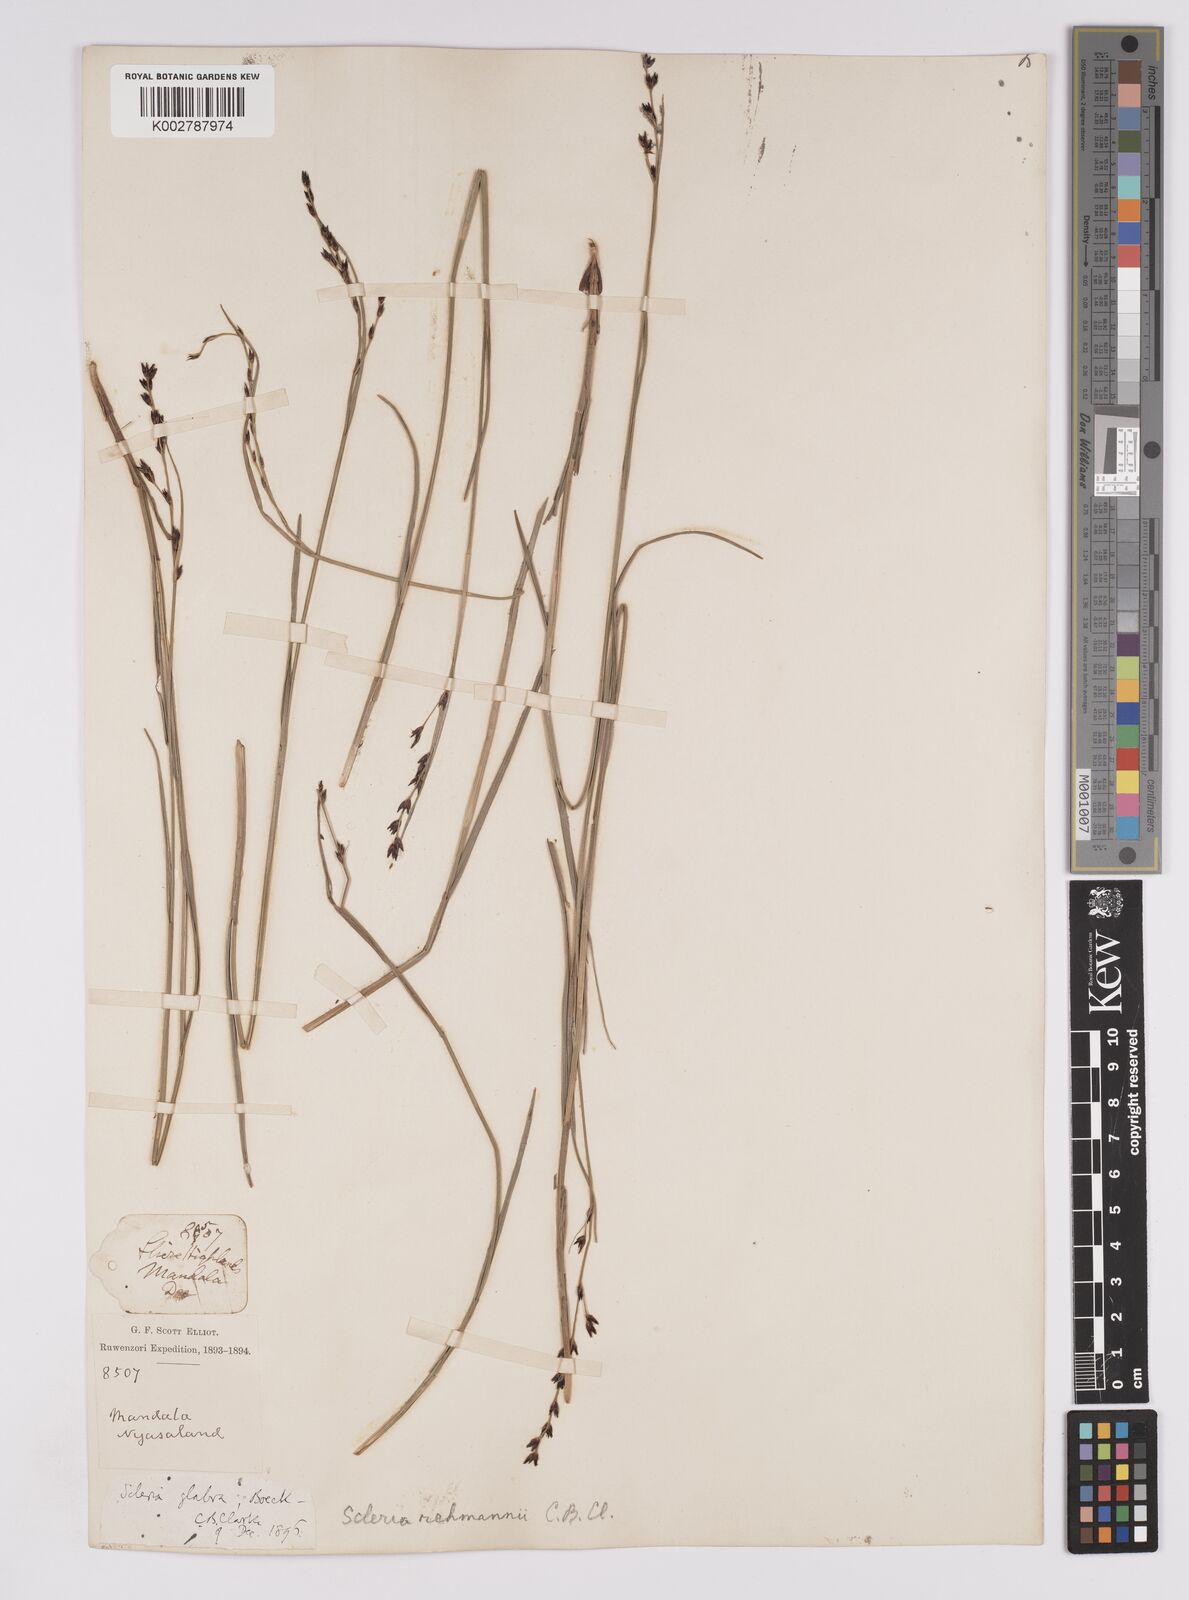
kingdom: Plantae
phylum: Tracheophyta
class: Liliopsida
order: Poales
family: Cyperaceae
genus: Scleria
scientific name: Scleria rehmannii
